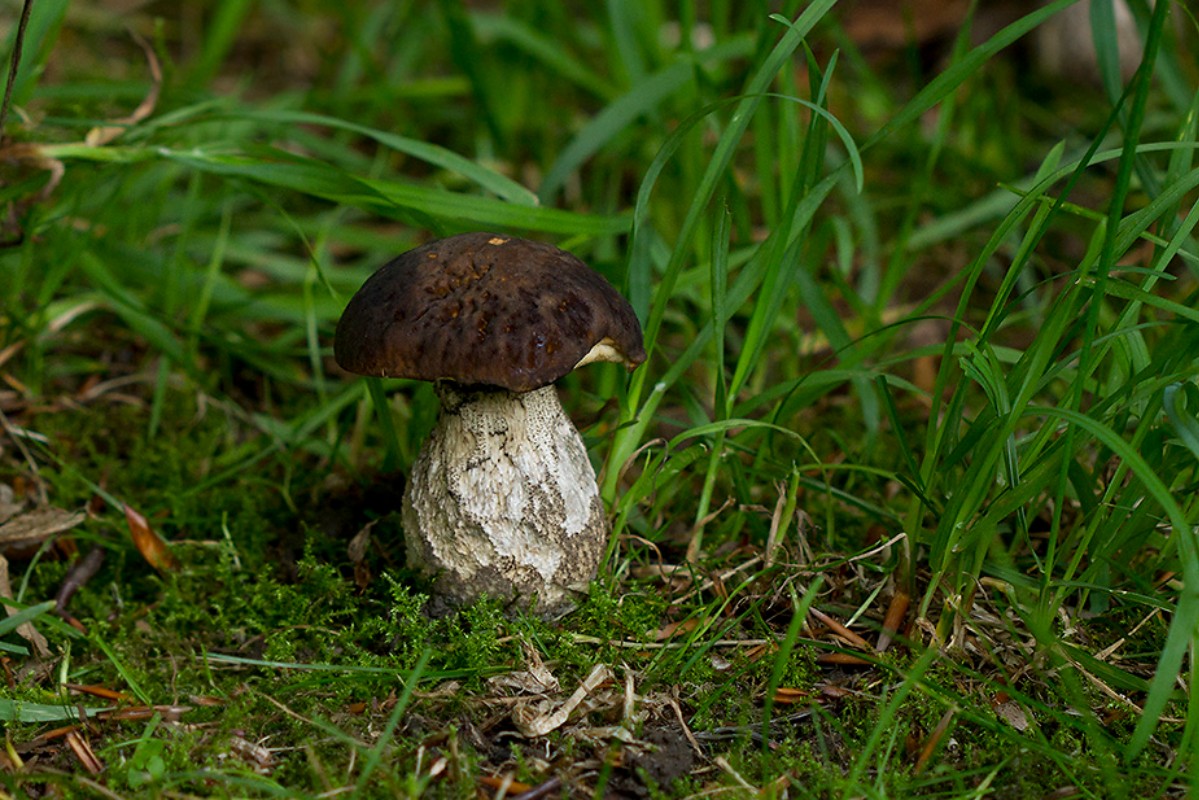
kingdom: Fungi
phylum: Basidiomycota
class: Agaricomycetes
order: Boletales
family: Boletaceae
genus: Leccinellum
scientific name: Leccinellum pseudoscabrum
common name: avnbøg-skælrørhat
